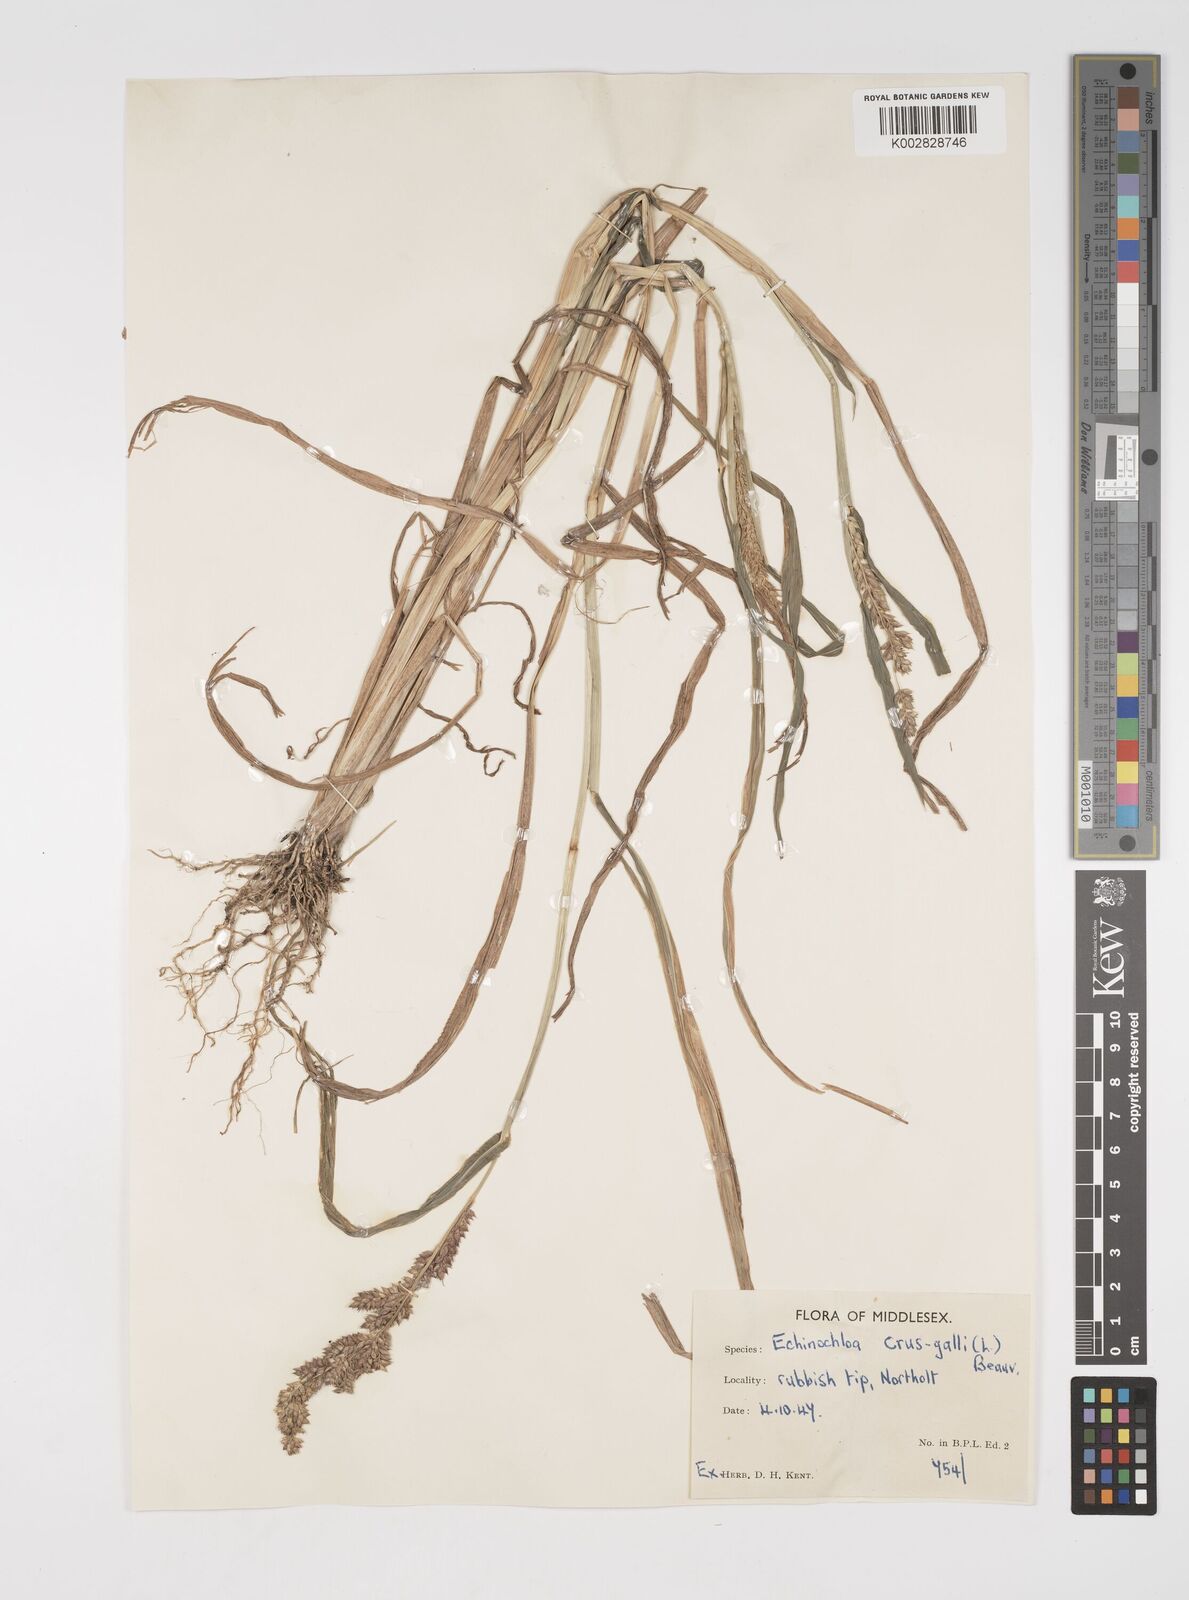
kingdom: Plantae
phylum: Tracheophyta
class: Liliopsida
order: Poales
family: Poaceae
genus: Echinochloa
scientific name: Echinochloa crus-galli
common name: Cockspur
